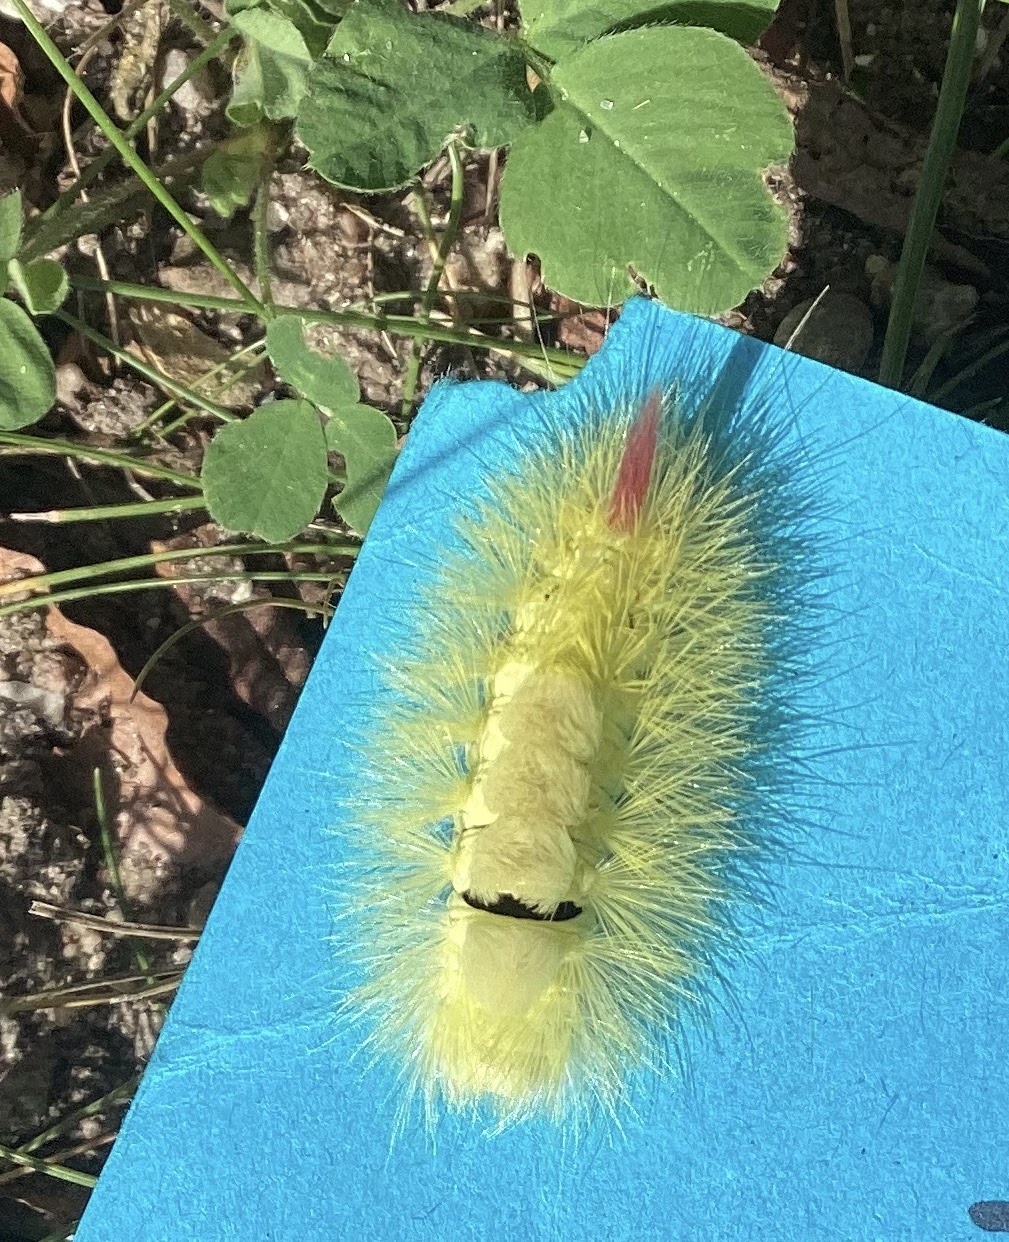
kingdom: Animalia
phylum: Arthropoda
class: Insecta
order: Lepidoptera
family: Erebidae
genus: Calliteara
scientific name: Calliteara pudibunda
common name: Bøgenonne
